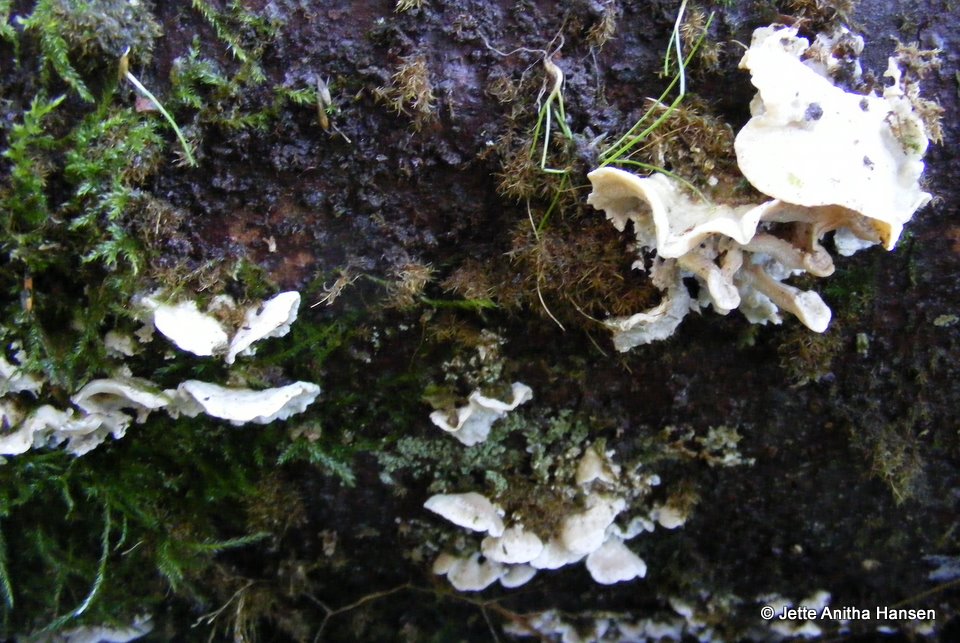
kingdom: Fungi
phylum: Basidiomycota
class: Agaricomycetes
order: Polyporales
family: Incrustoporiaceae
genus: Skeletocutis
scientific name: Skeletocutis carneogrisea
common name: rødgrå krystalporesvamp
